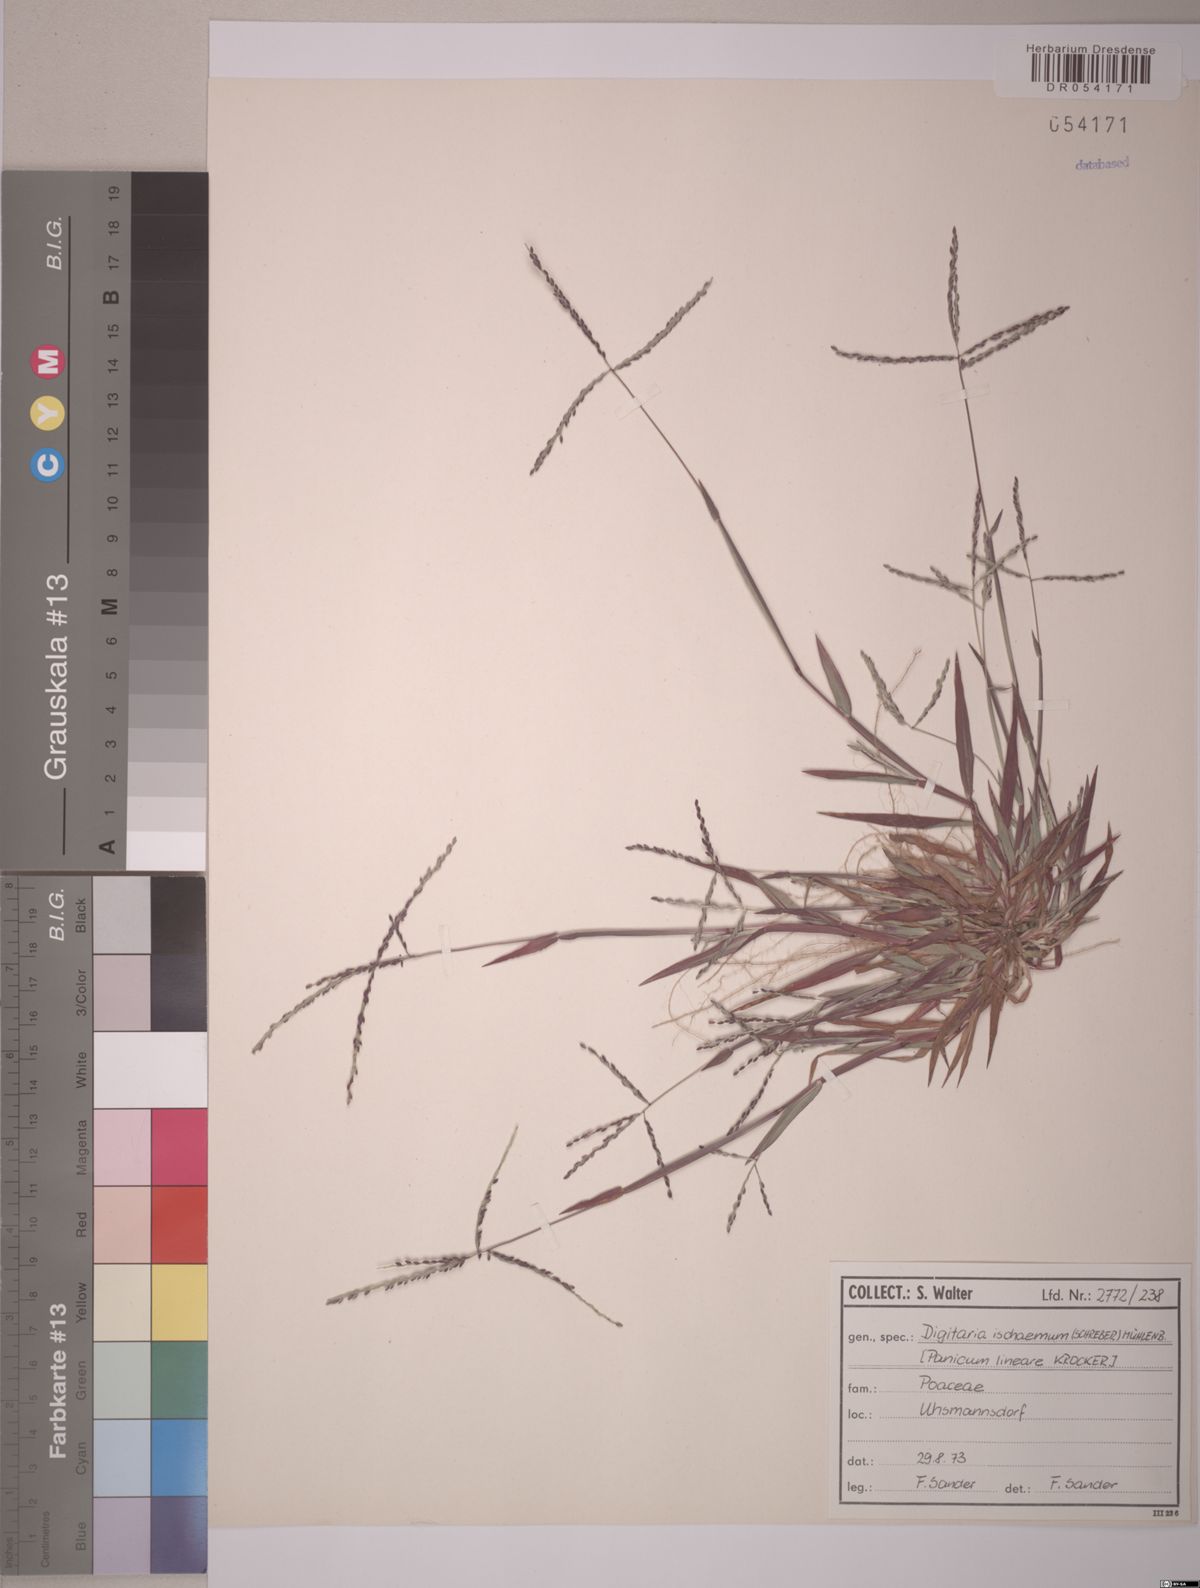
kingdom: Plantae
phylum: Tracheophyta
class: Liliopsida
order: Poales
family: Poaceae
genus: Digitaria
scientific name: Digitaria ischaemum
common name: Smooth crabgrass
